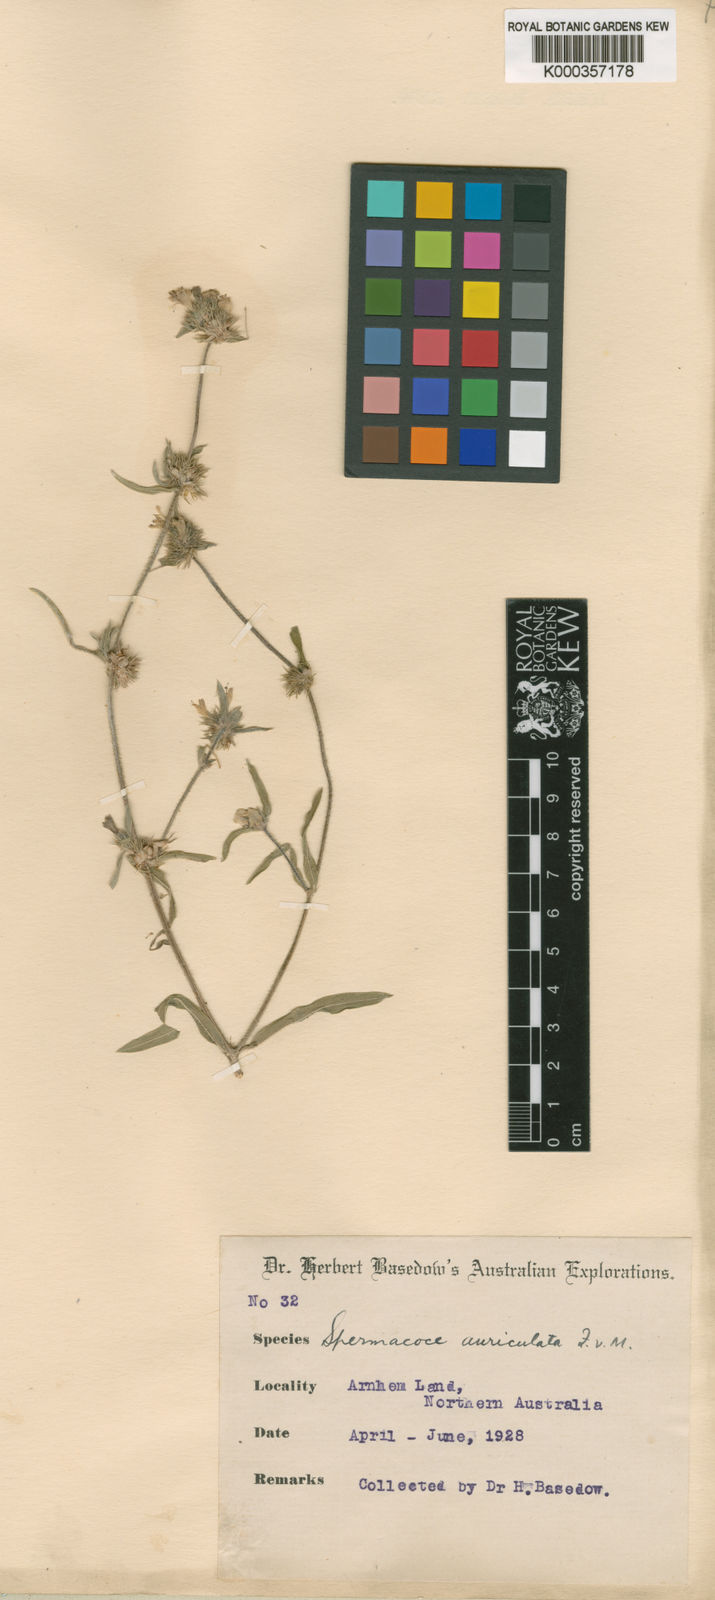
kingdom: Plantae
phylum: Tracheophyta
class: Magnoliopsida
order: Gentianales
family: Rubiaceae
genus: Spermacoce
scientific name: Spermacoce auriculata
